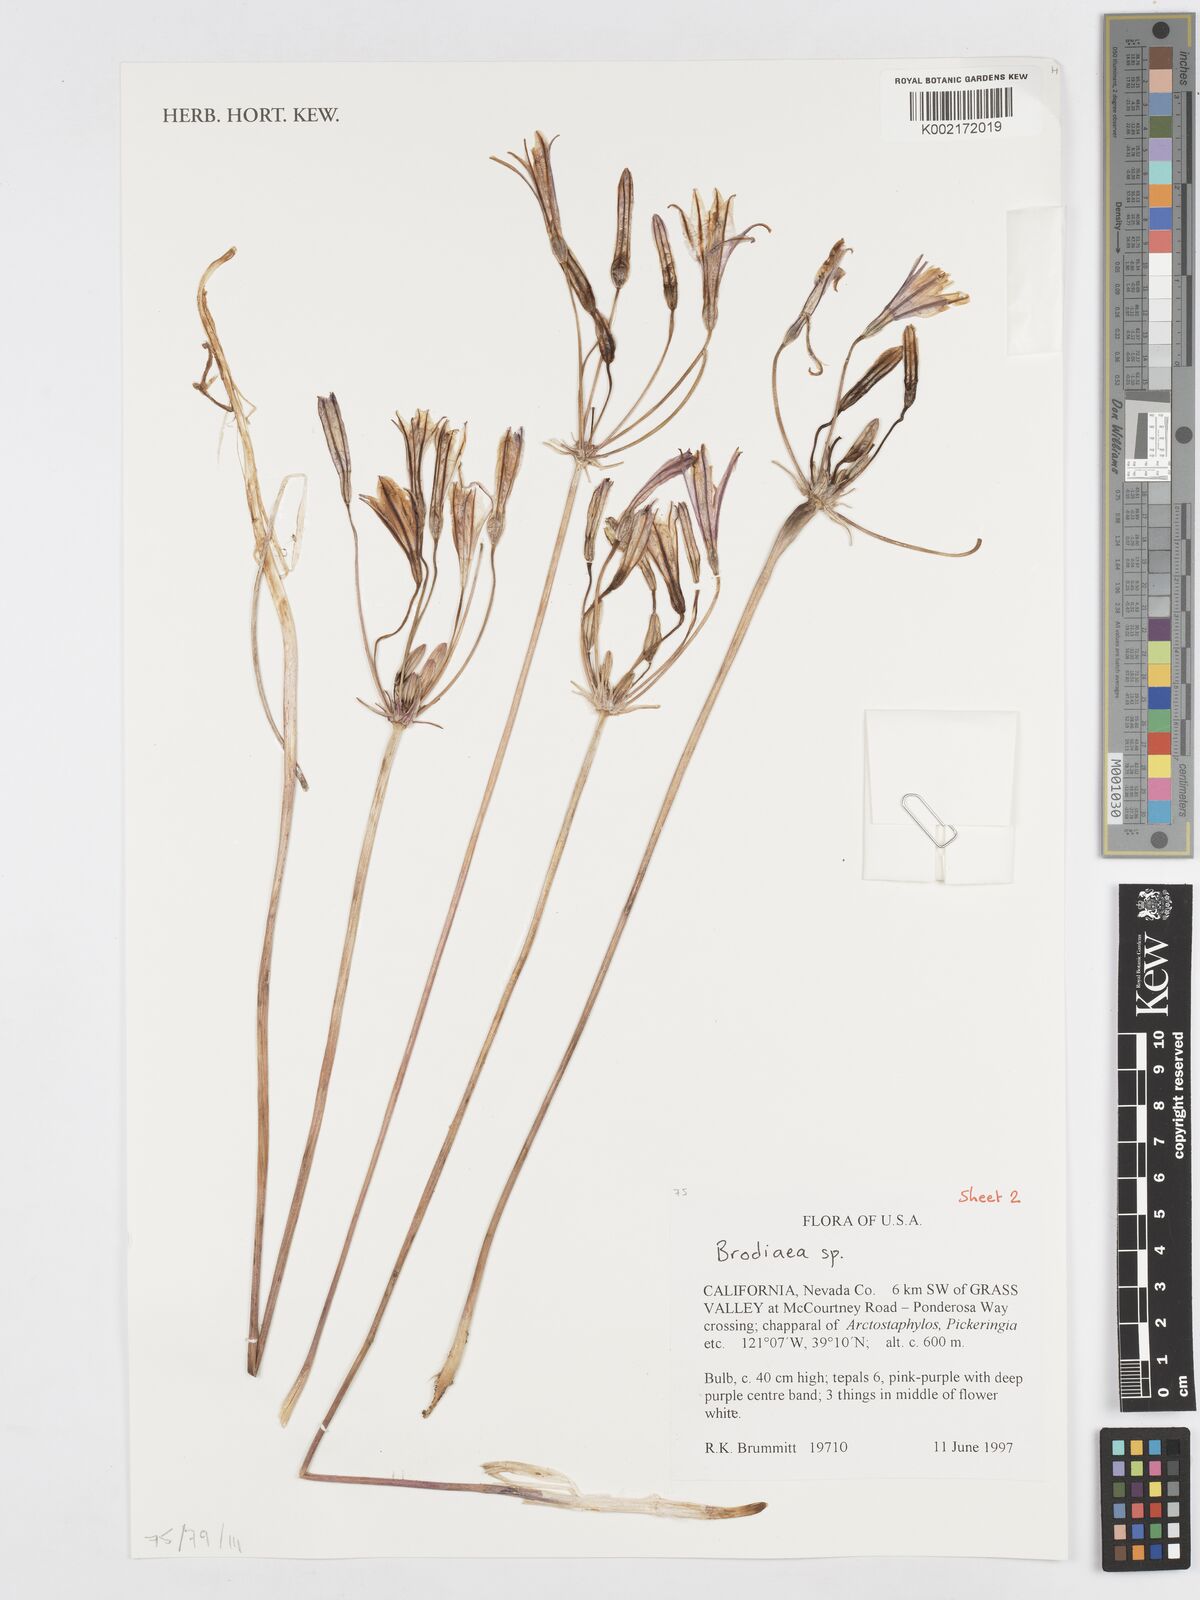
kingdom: Plantae
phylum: Tracheophyta
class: Liliopsida
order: Asparagales
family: Asparagaceae
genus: Brodiaea
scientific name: Brodiaea
